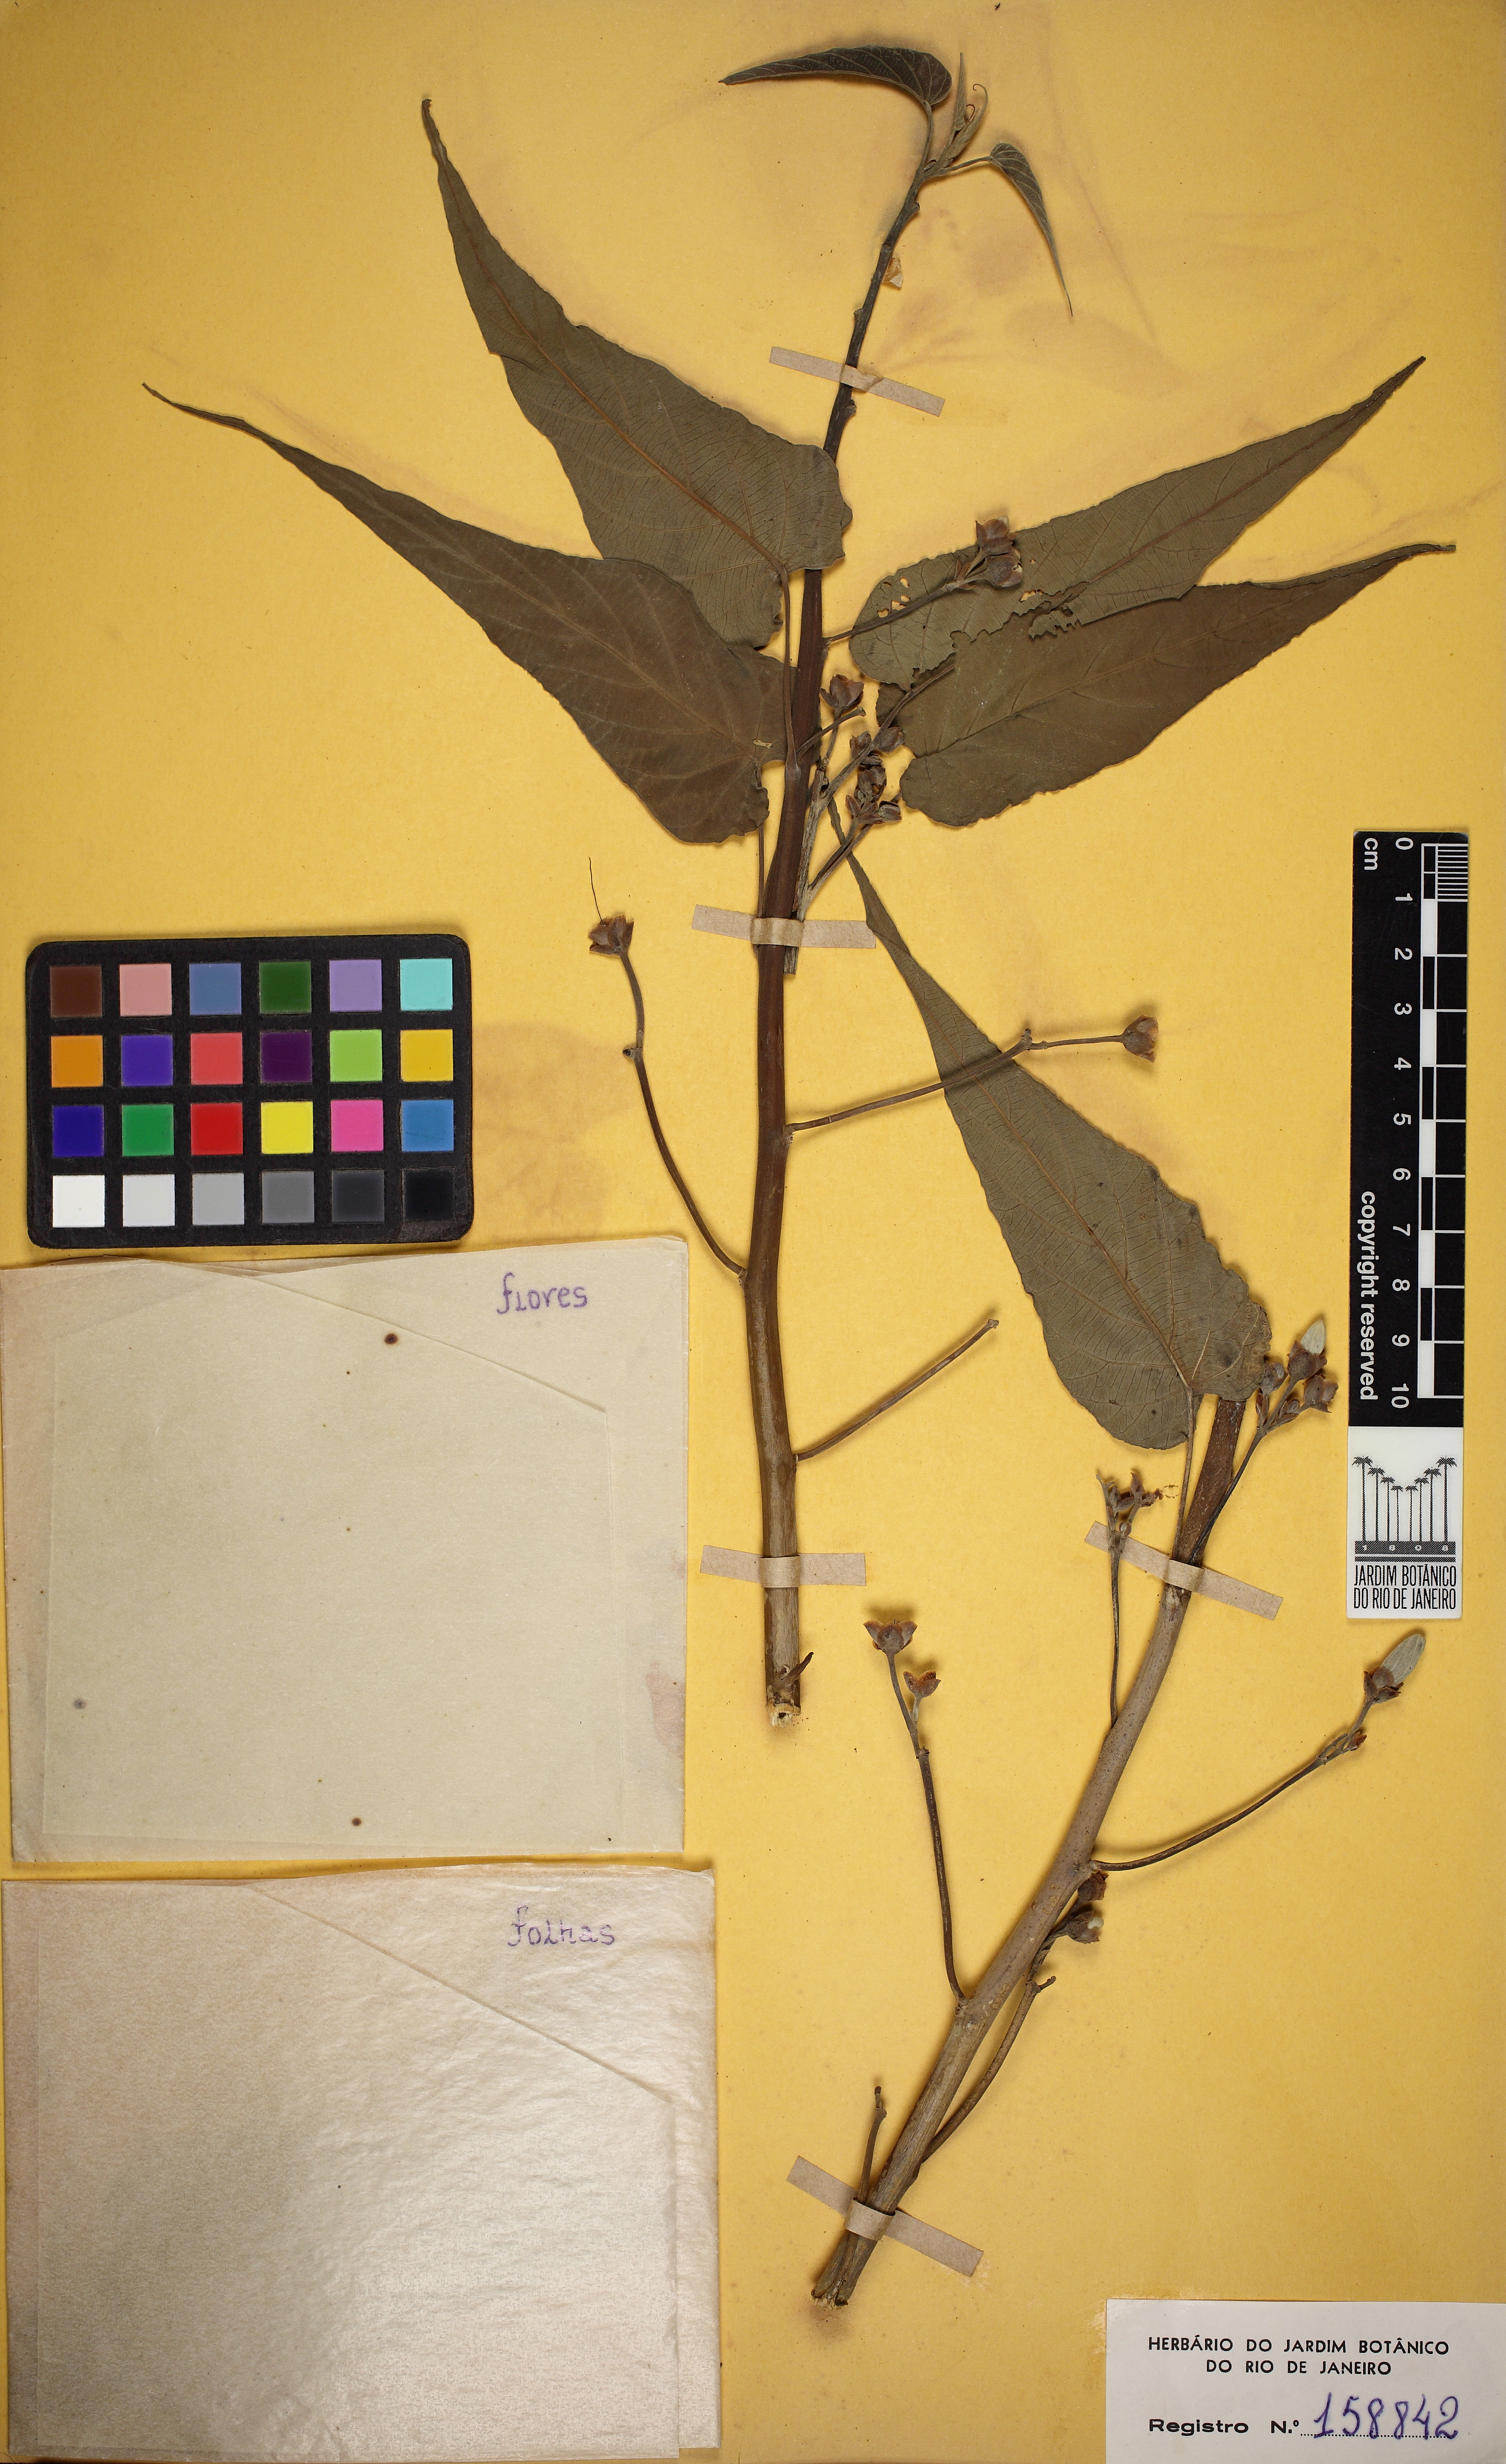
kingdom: Plantae
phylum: Tracheophyta
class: Magnoliopsida
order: Solanales
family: Convolvulaceae
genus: Ipomoea
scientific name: Ipomoea carnea
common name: Morning-glory
